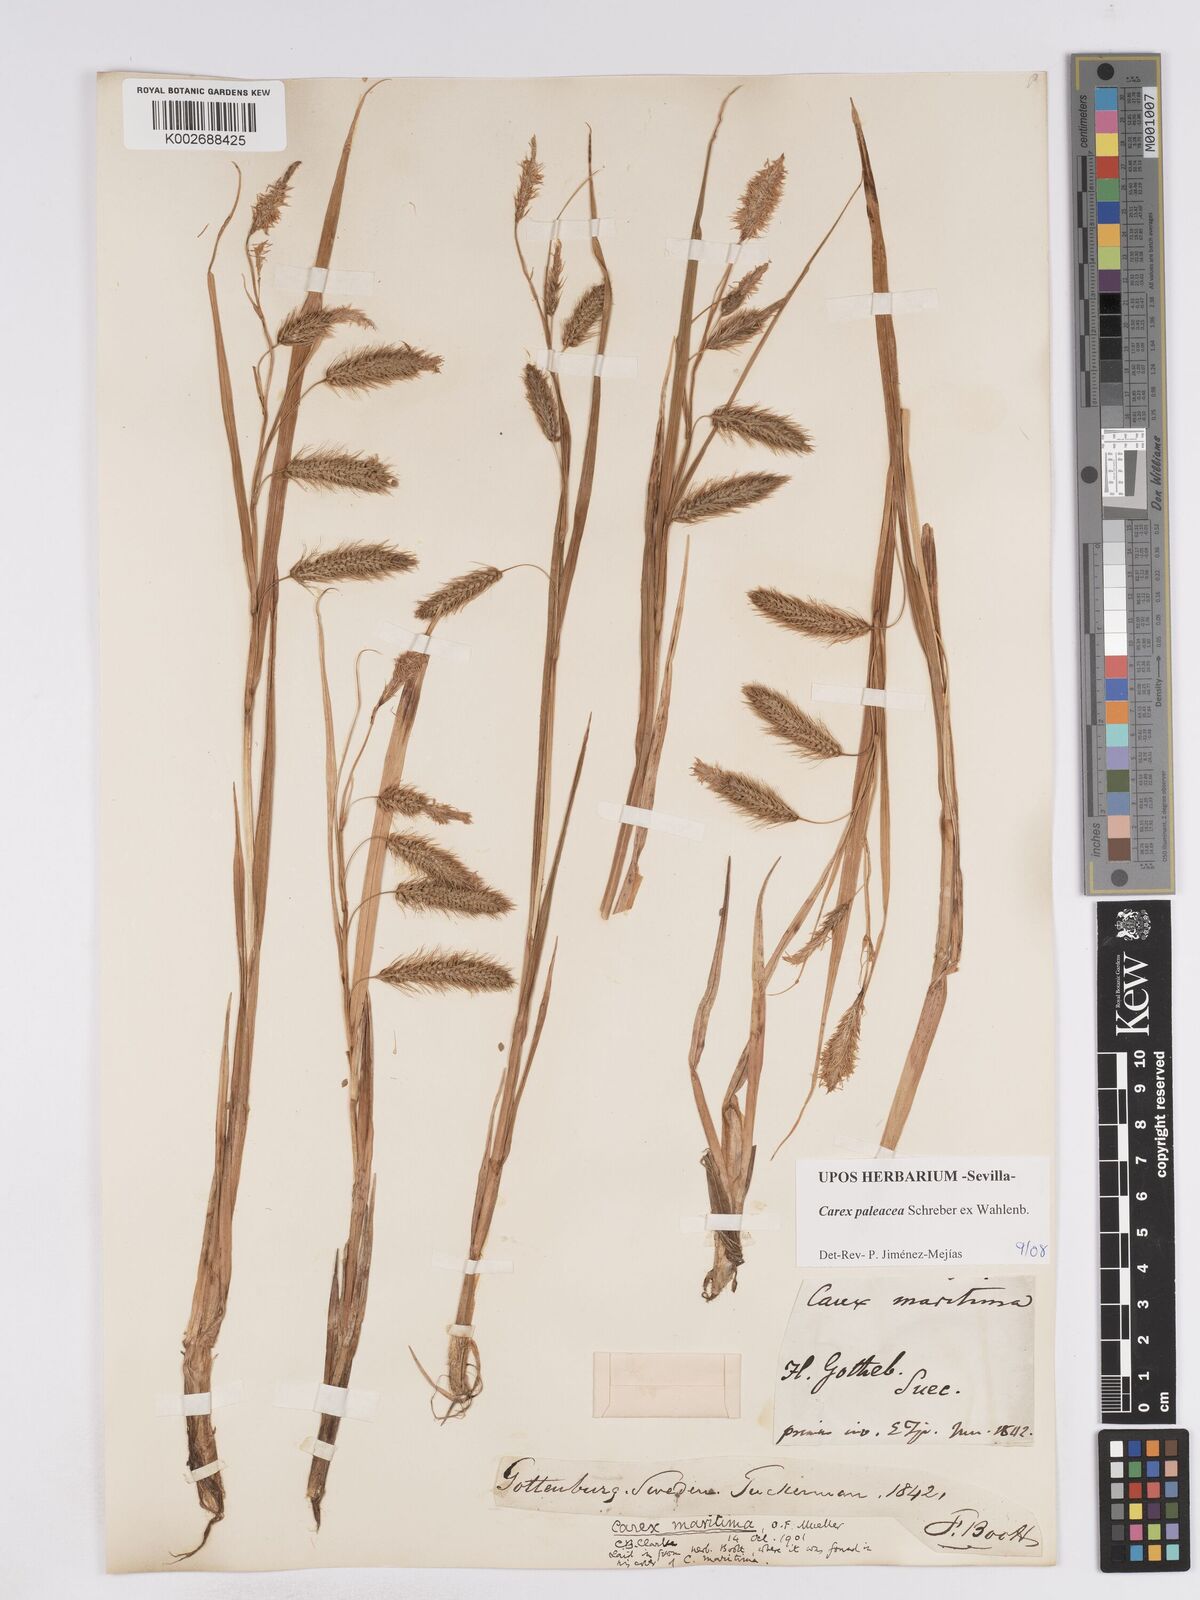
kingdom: Plantae
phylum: Tracheophyta
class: Liliopsida
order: Poales
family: Cyperaceae
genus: Carex
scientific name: Carex paleacea
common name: Chaffy sedge
